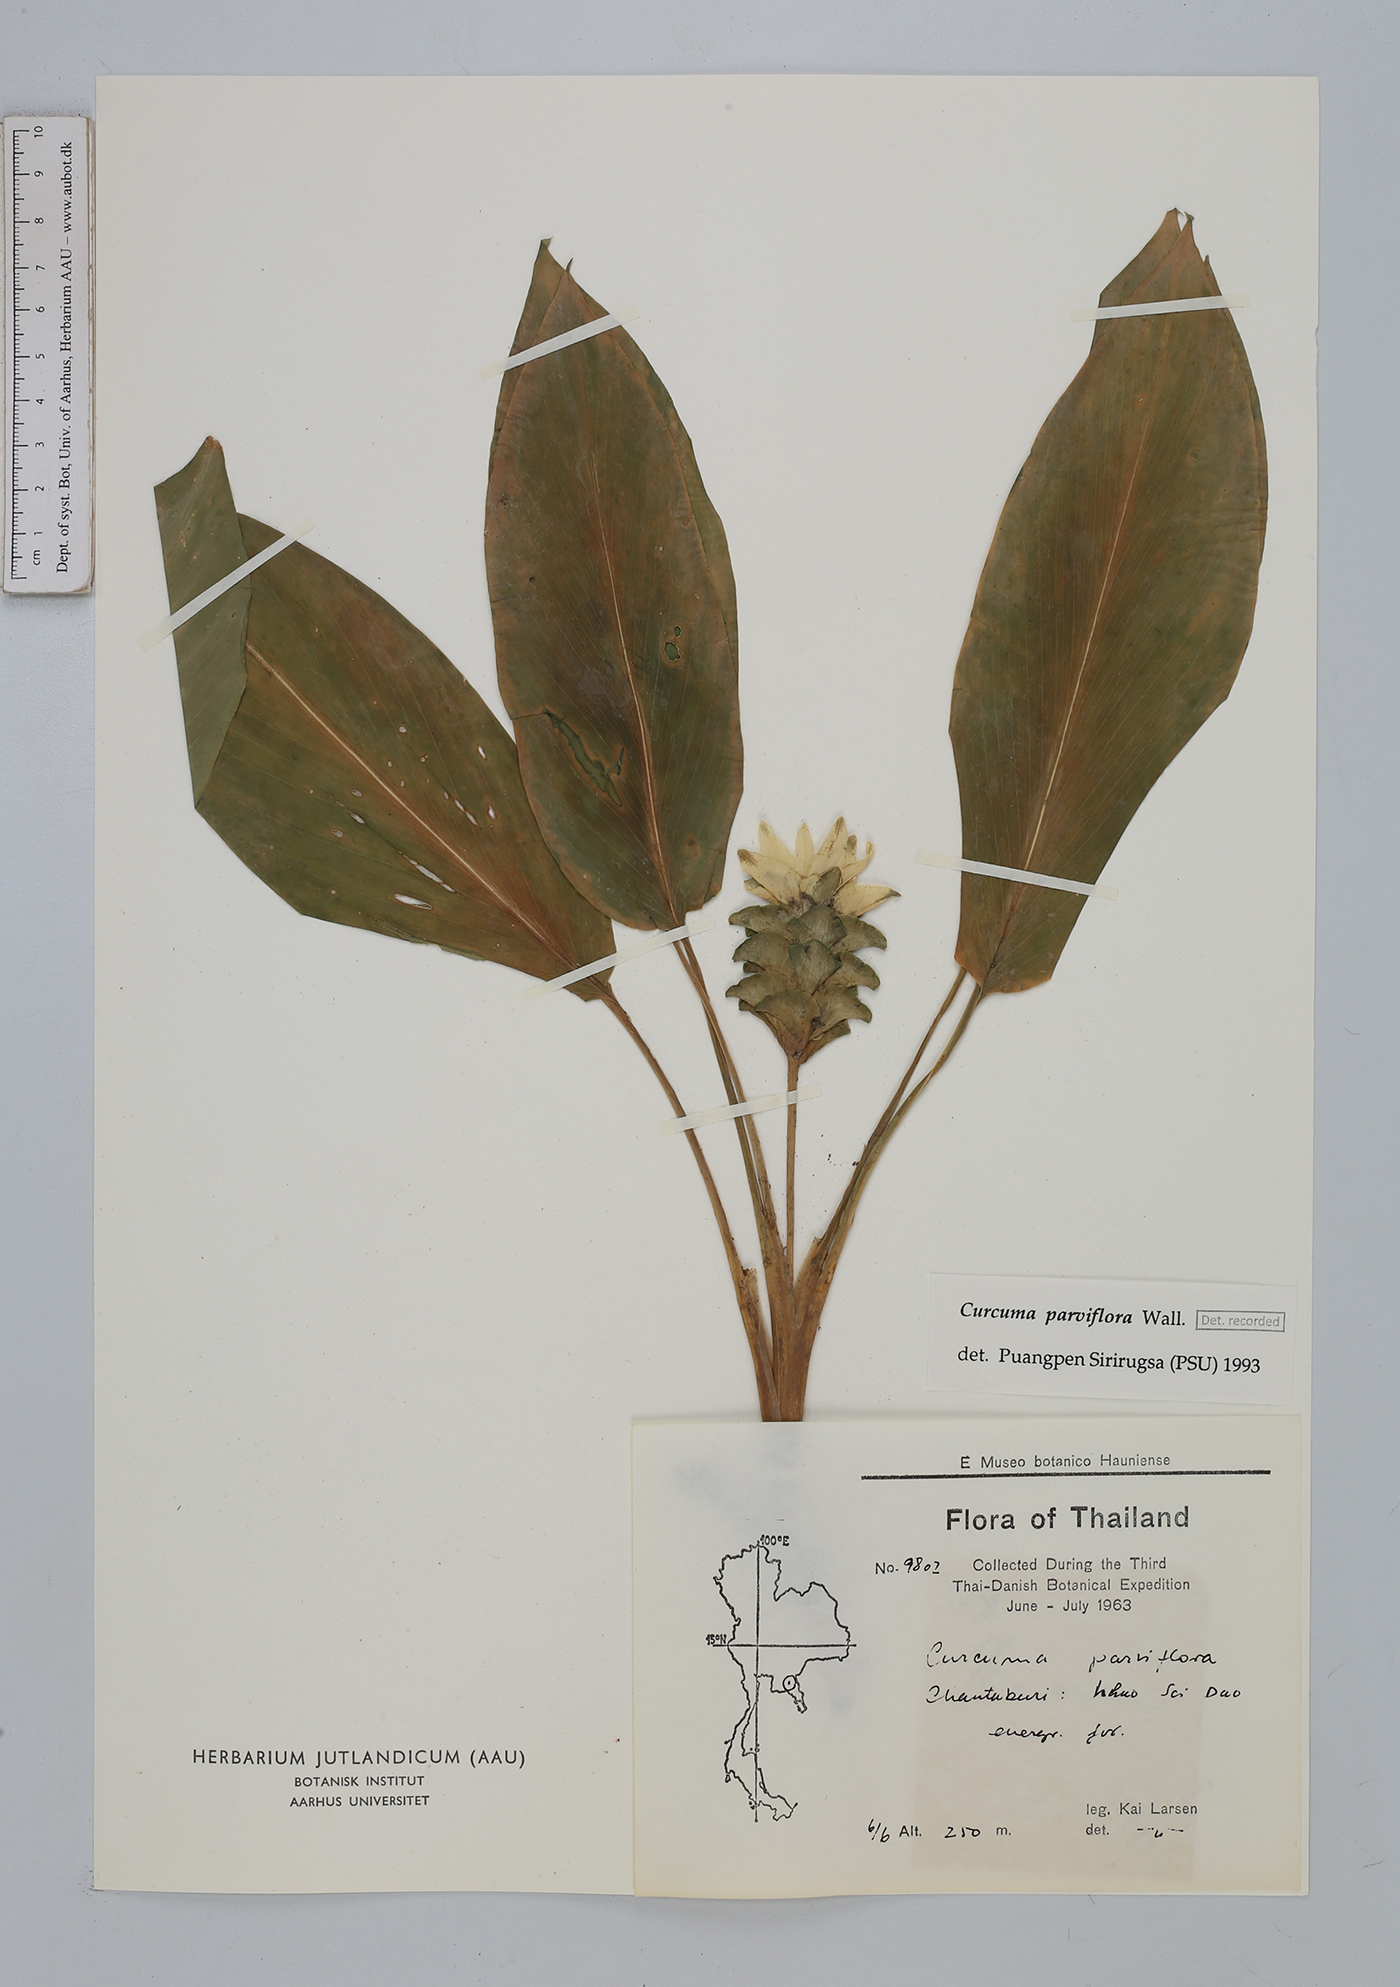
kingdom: Plantae
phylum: Tracheophyta
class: Liliopsida
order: Zingiberales
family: Zingiberaceae
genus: Curcuma
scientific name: Curcuma parviflora
